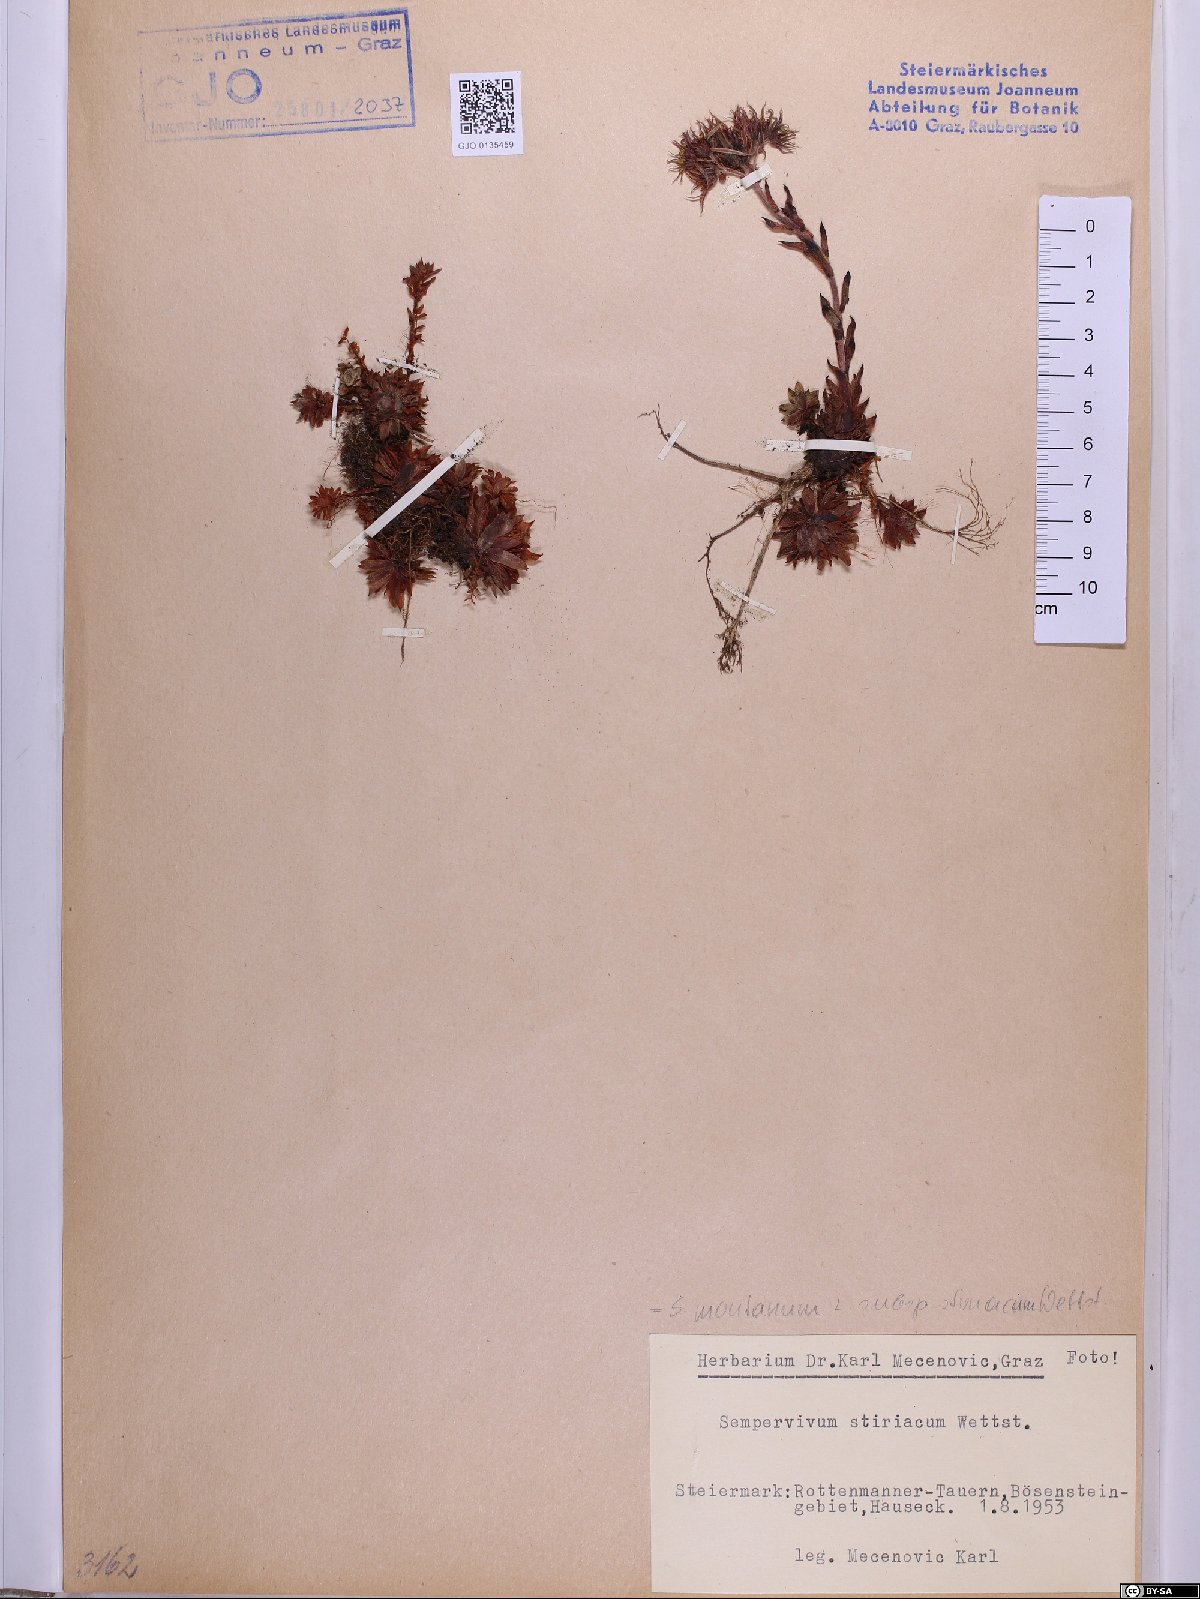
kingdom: Plantae
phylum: Tracheophyta
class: Magnoliopsida
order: Saxifragales
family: Crassulaceae
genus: Sempervivum
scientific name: Sempervivum montanum
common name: Mountain house-leek
